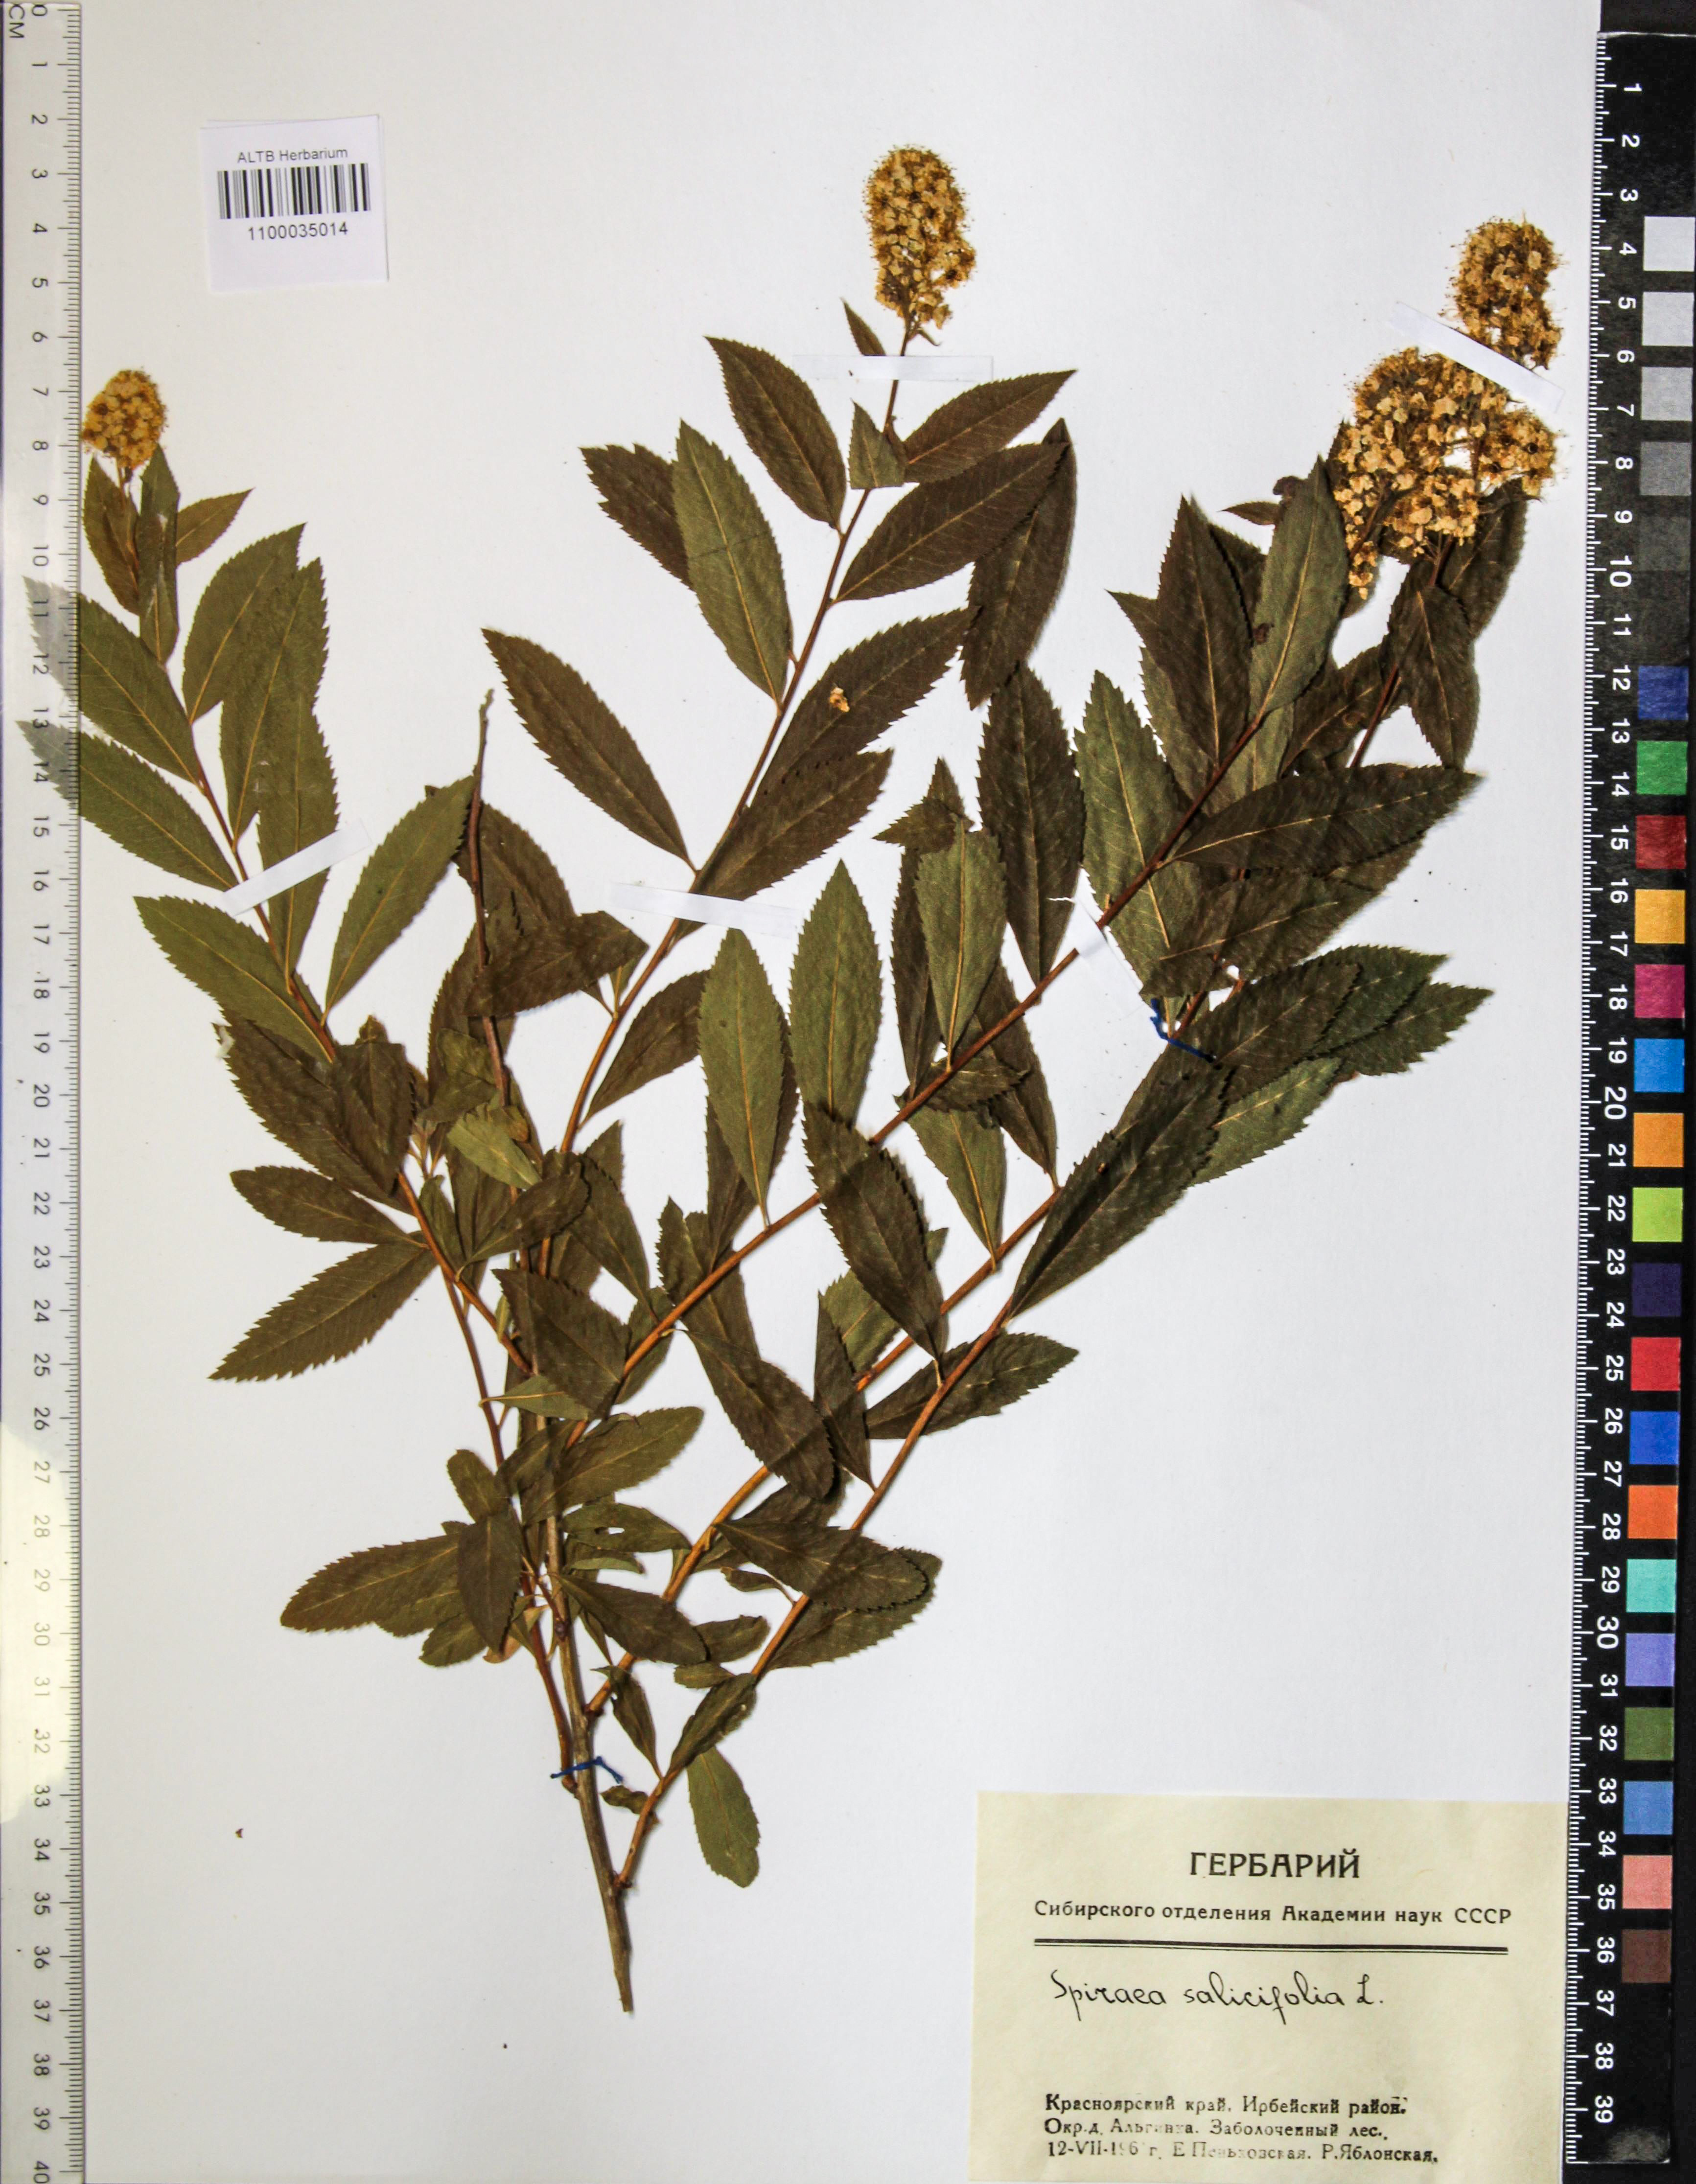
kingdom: Plantae
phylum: Tracheophyta
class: Magnoliopsida
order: Rosales
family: Rosaceae
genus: Spiraea
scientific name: Spiraea salicifolia
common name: Bridewort
